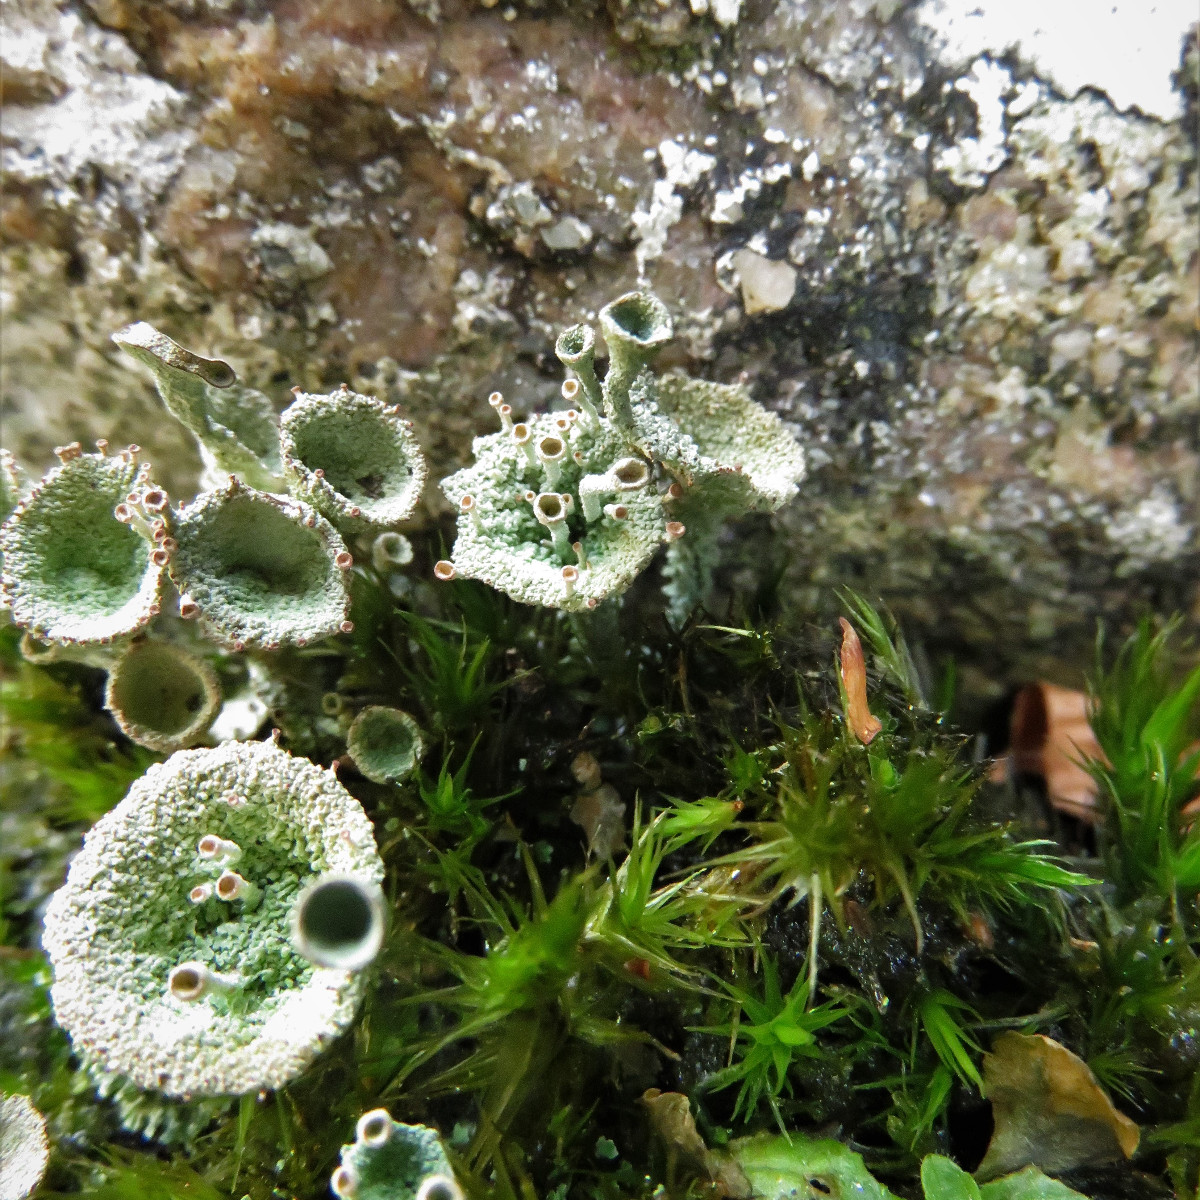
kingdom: Fungi
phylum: Ascomycota
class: Lecanoromycetes
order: Lecanorales
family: Cladoniaceae
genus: Cladonia
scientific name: Cladonia pyxidata
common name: tragt-bægerlav
